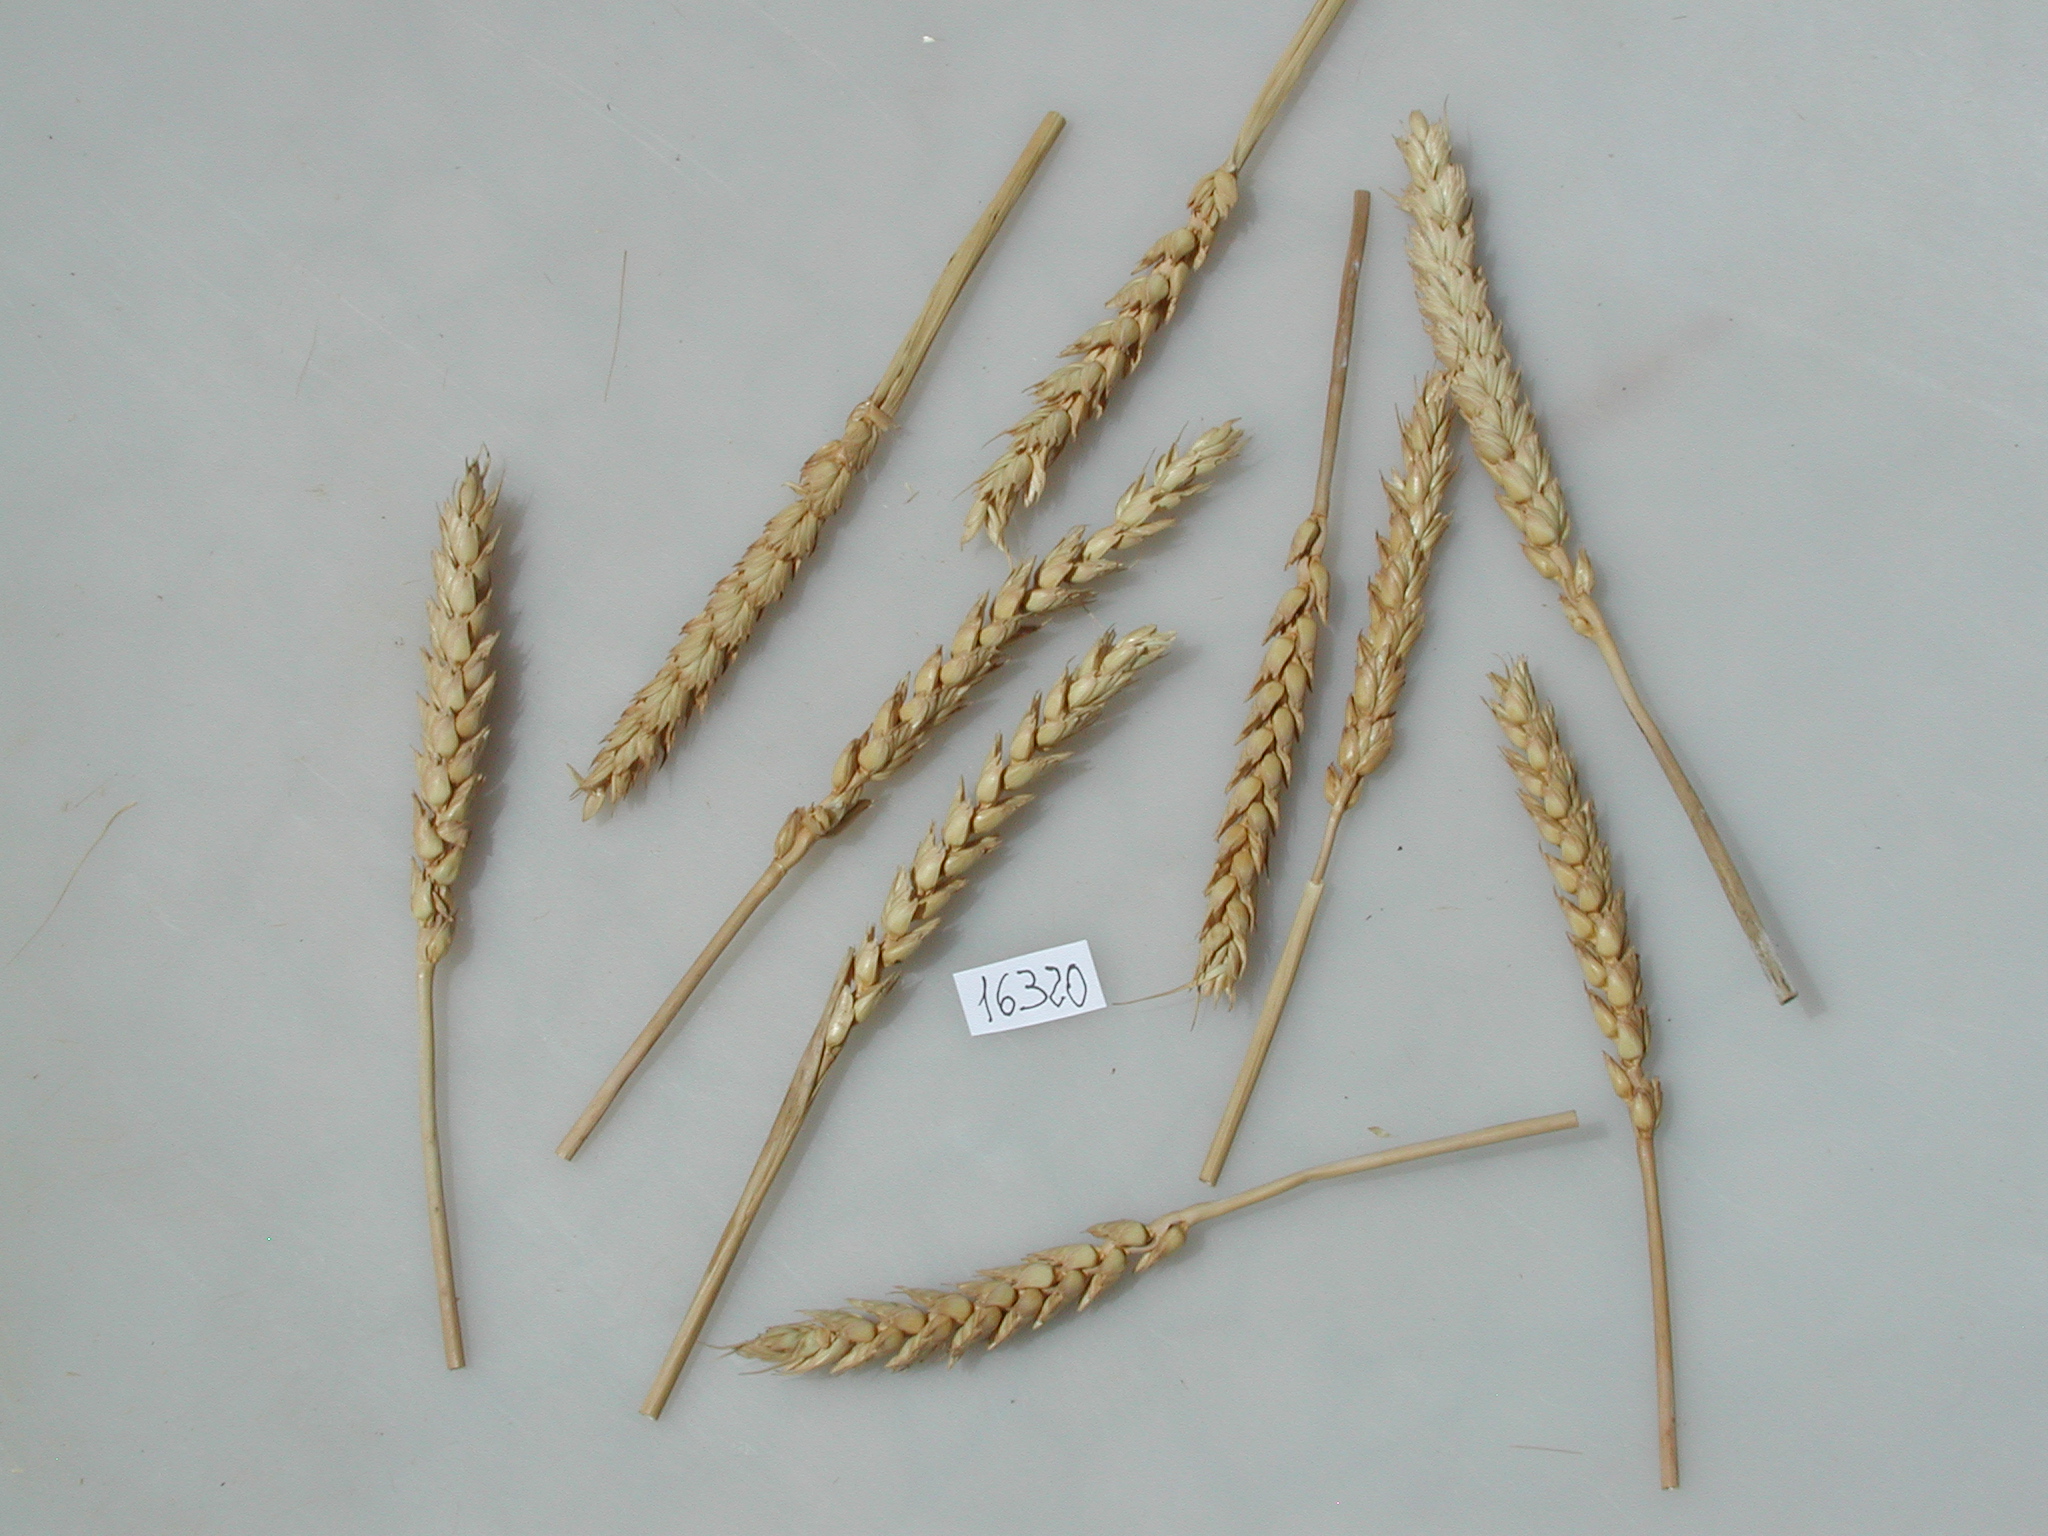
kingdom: Plantae
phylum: Tracheophyta
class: Liliopsida
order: Poales
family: Poaceae
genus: Triticum
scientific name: Triticum
